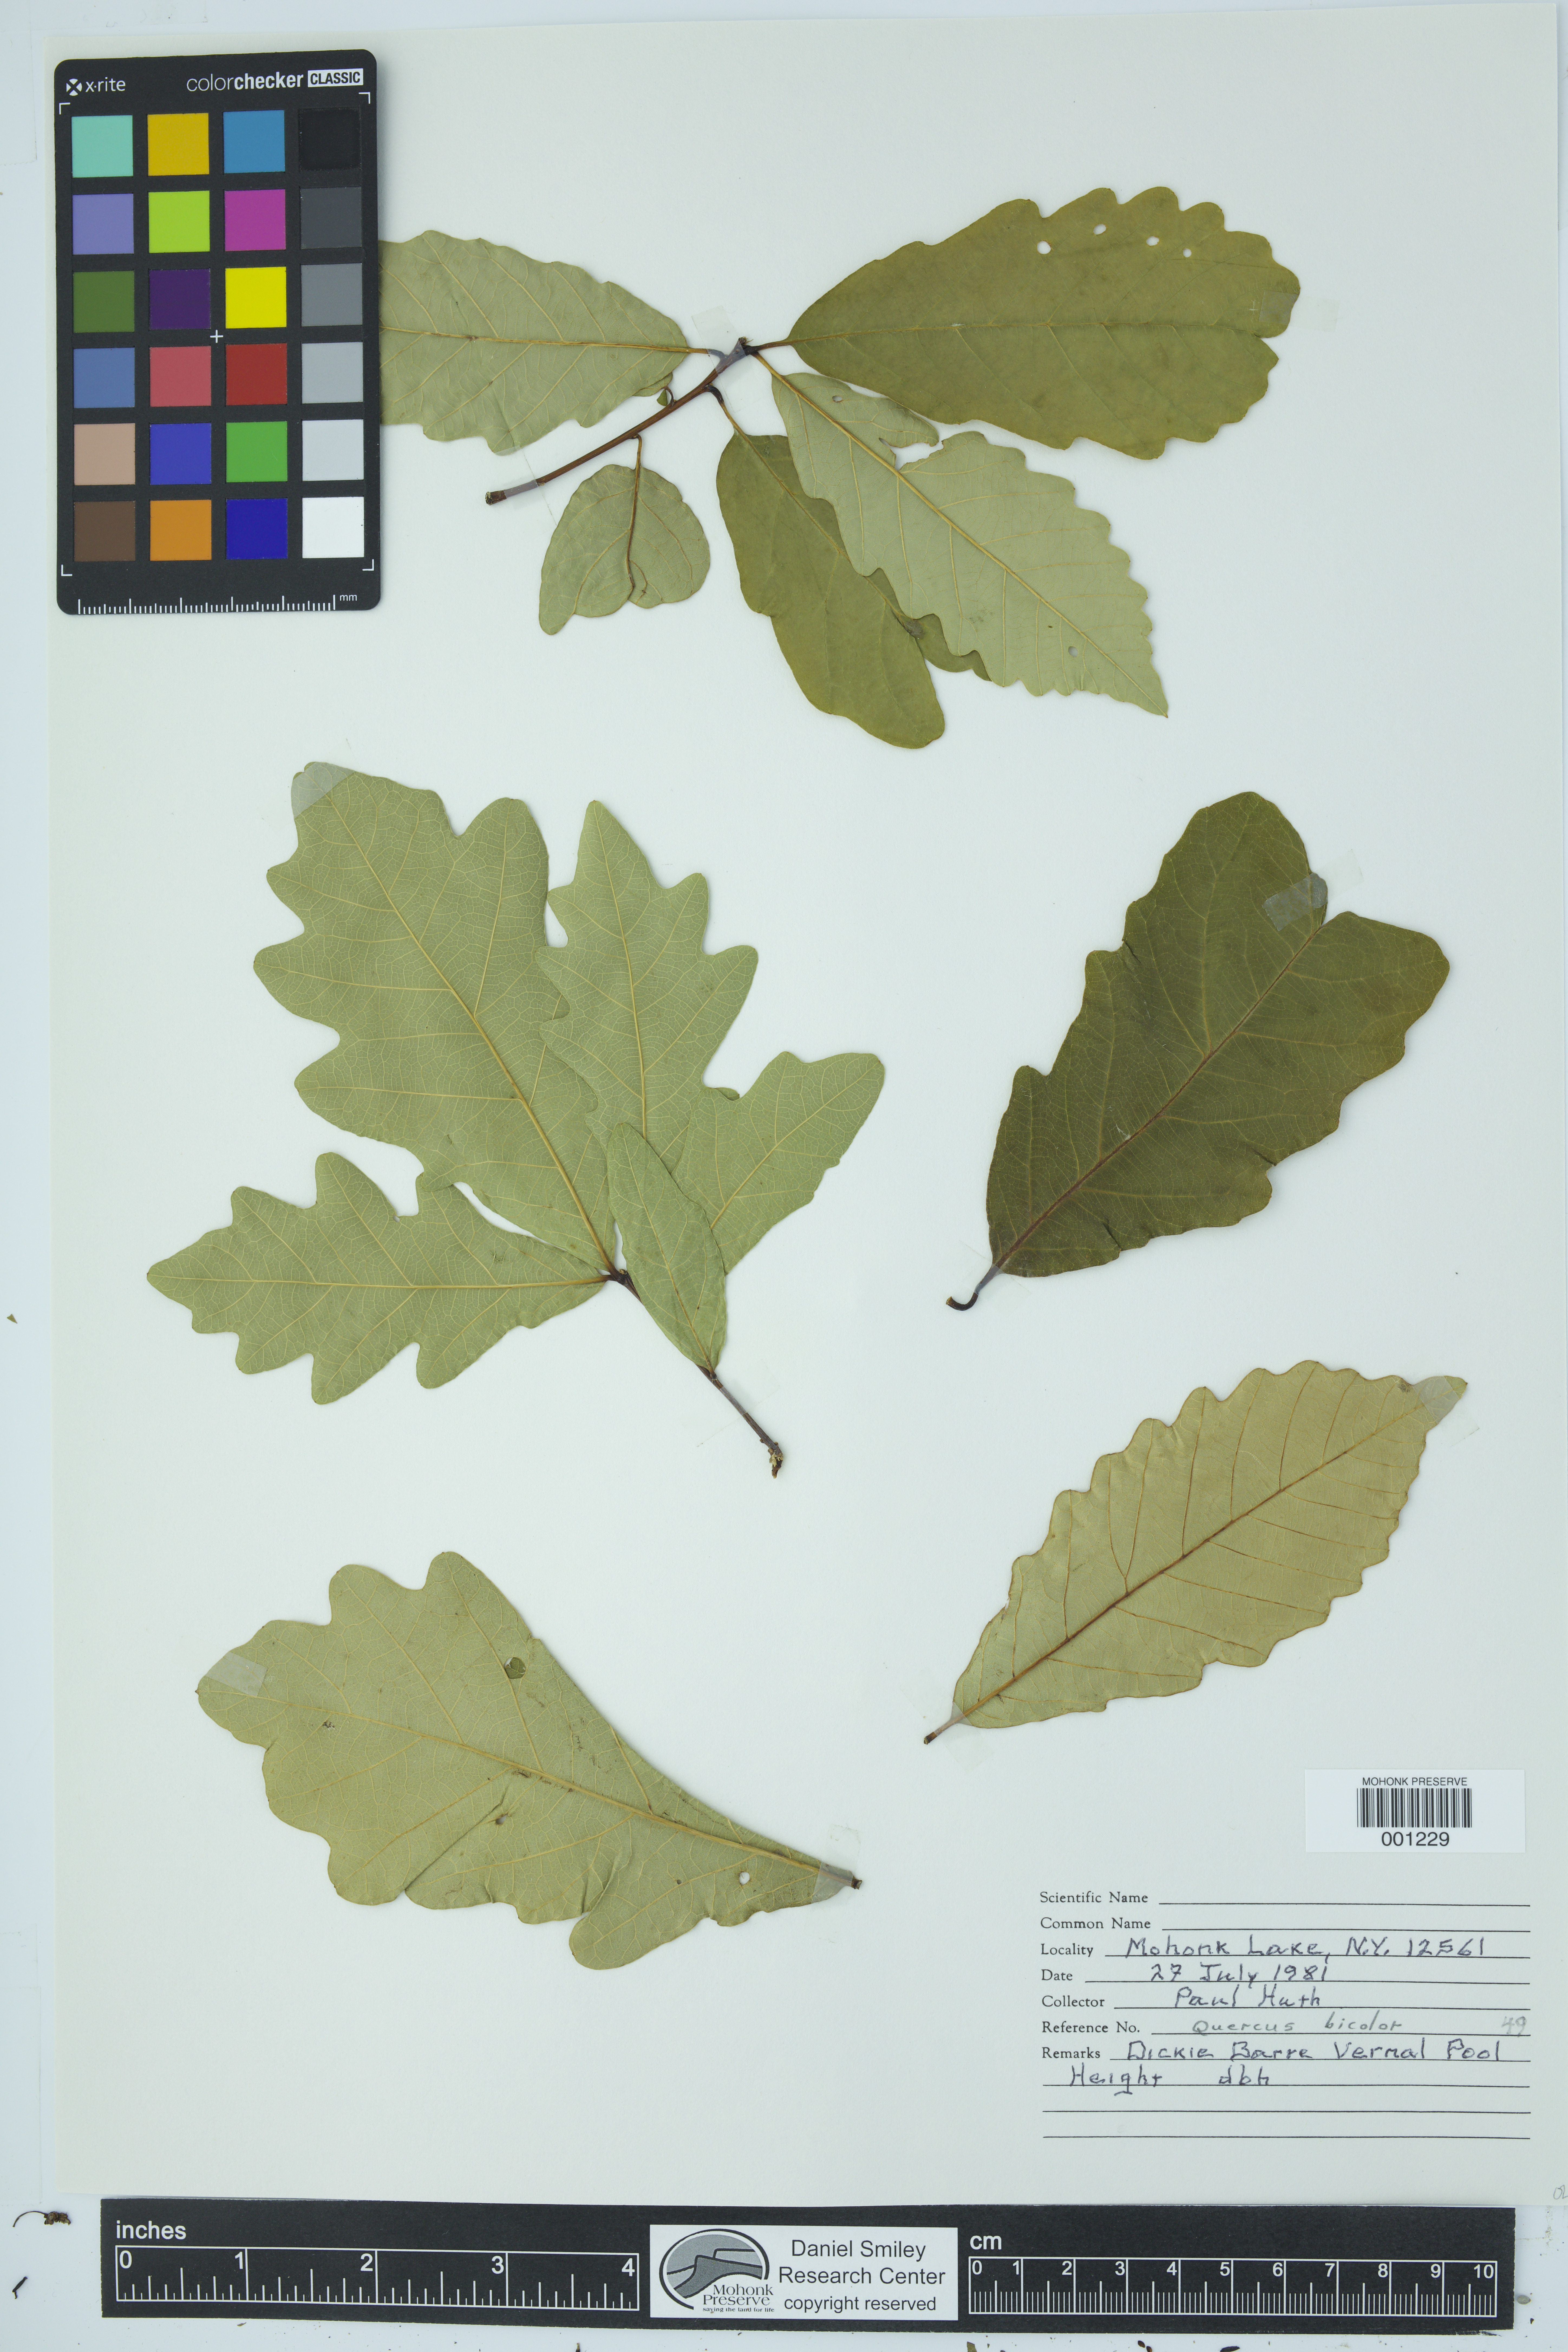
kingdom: Plantae
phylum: Tracheophyta
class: Magnoliopsida
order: Fagales
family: Fagaceae
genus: Quercus
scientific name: Quercus bicolor
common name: Swamp white oak
